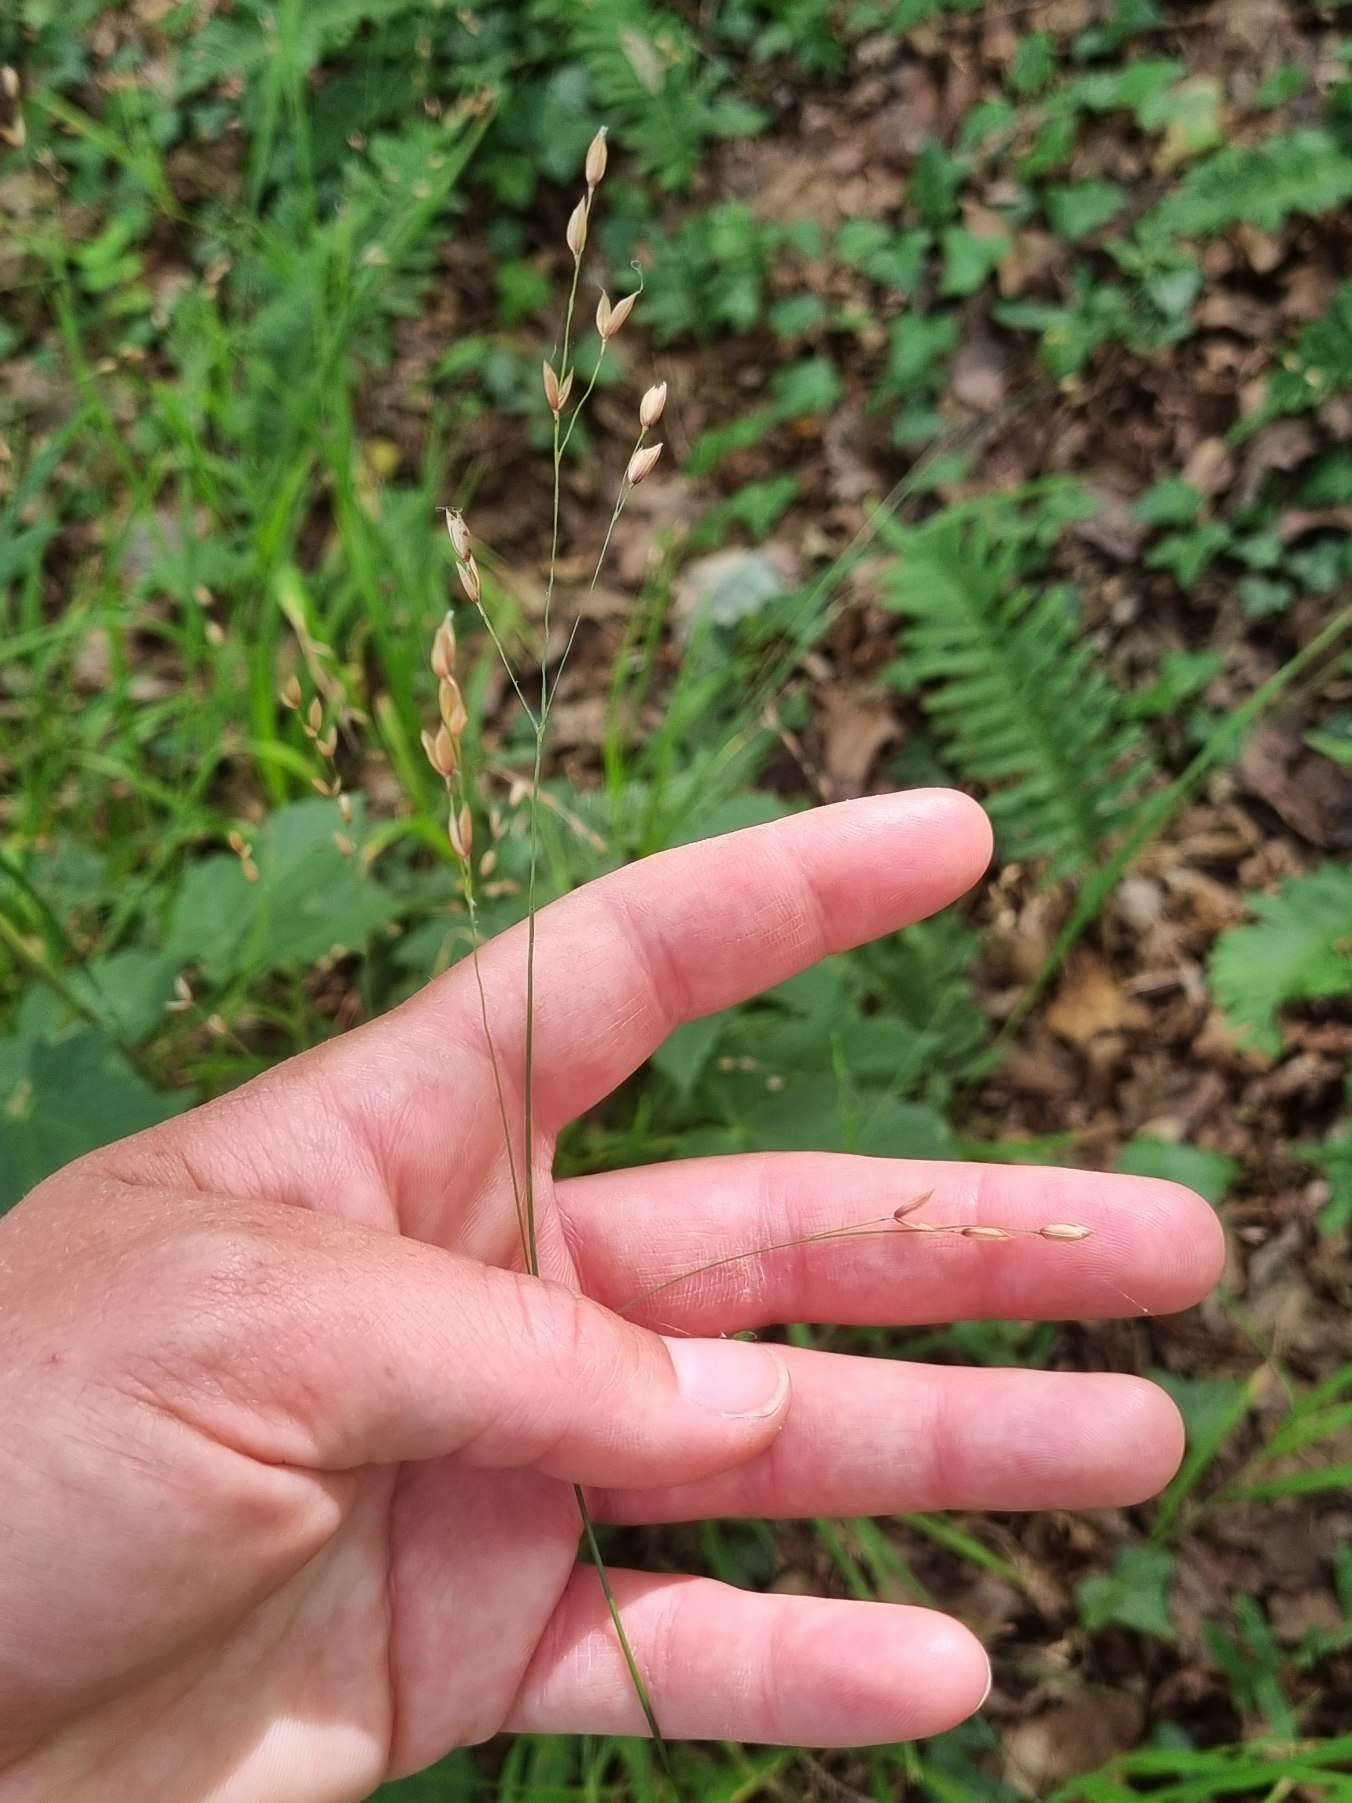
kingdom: Plantae
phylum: Tracheophyta
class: Liliopsida
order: Poales
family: Poaceae
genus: Melica
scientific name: Melica uniflora
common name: Enblomstret flitteraks
